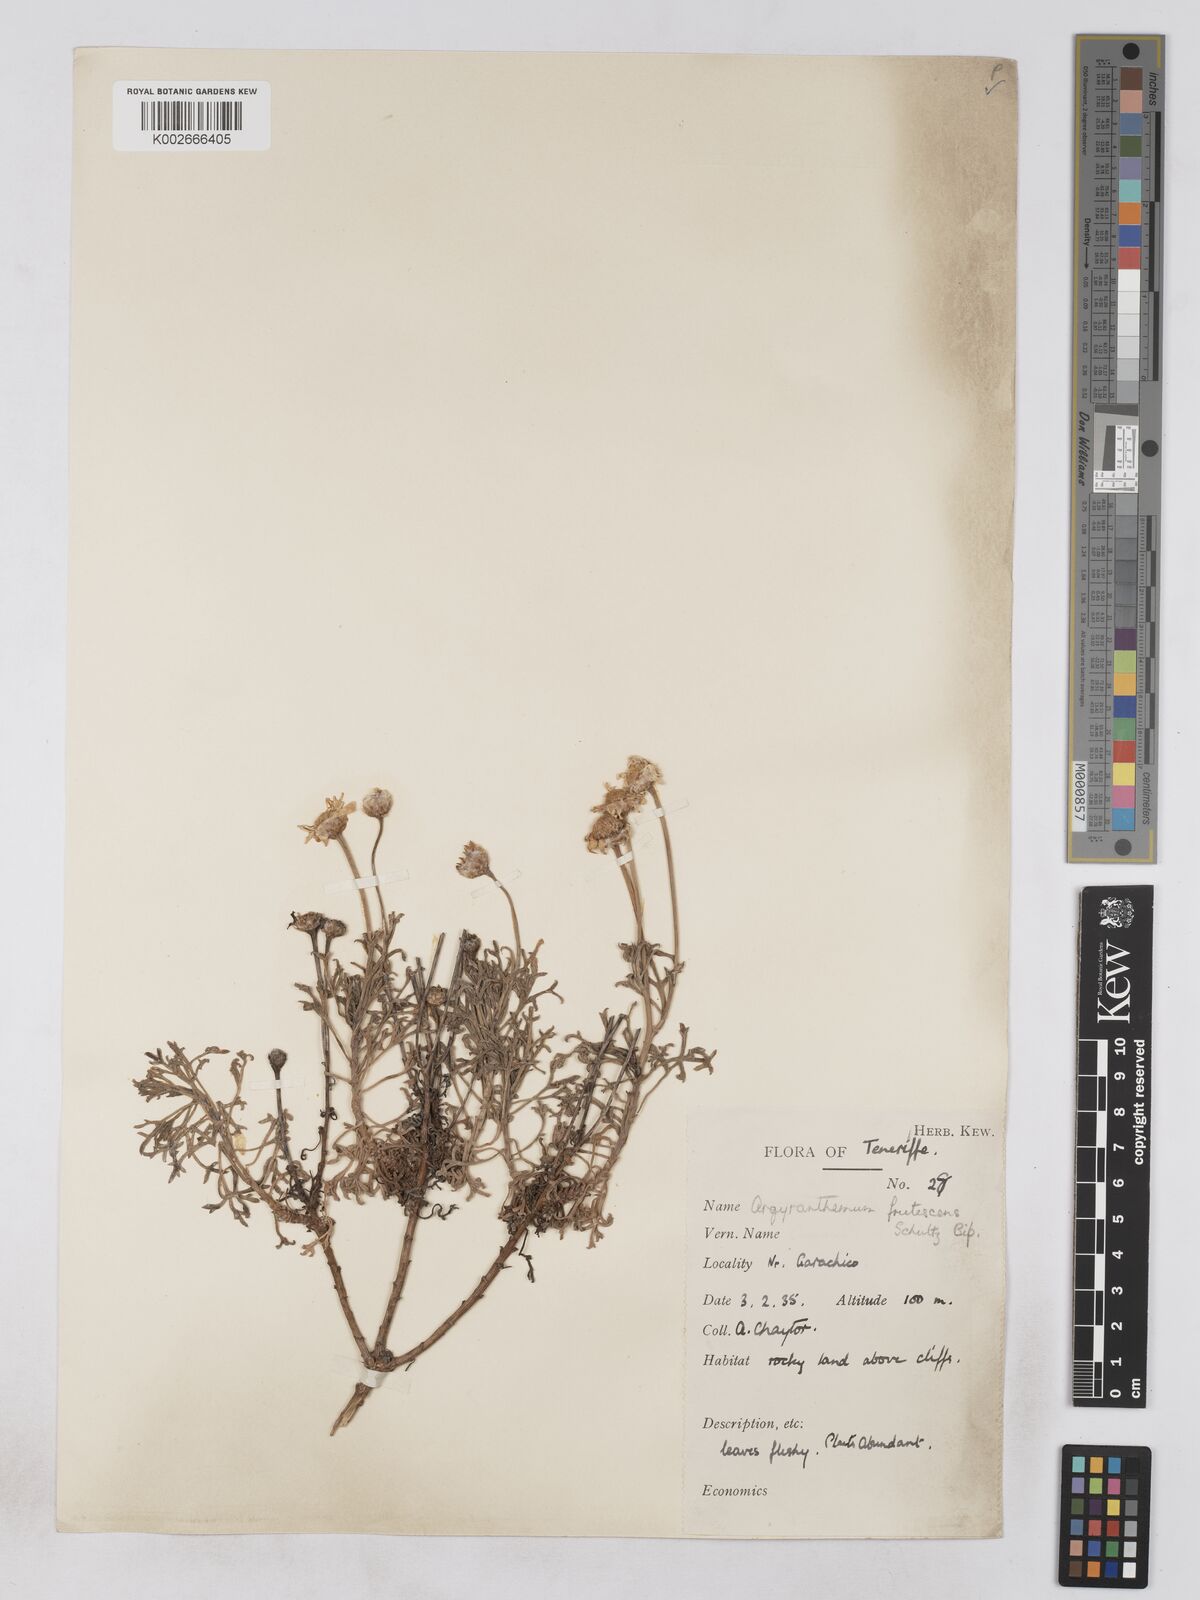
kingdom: Plantae
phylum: Tracheophyta
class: Magnoliopsida
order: Asterales
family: Asteraceae
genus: Argyranthemum
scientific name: Argyranthemum frutescens
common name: Paris daisy
